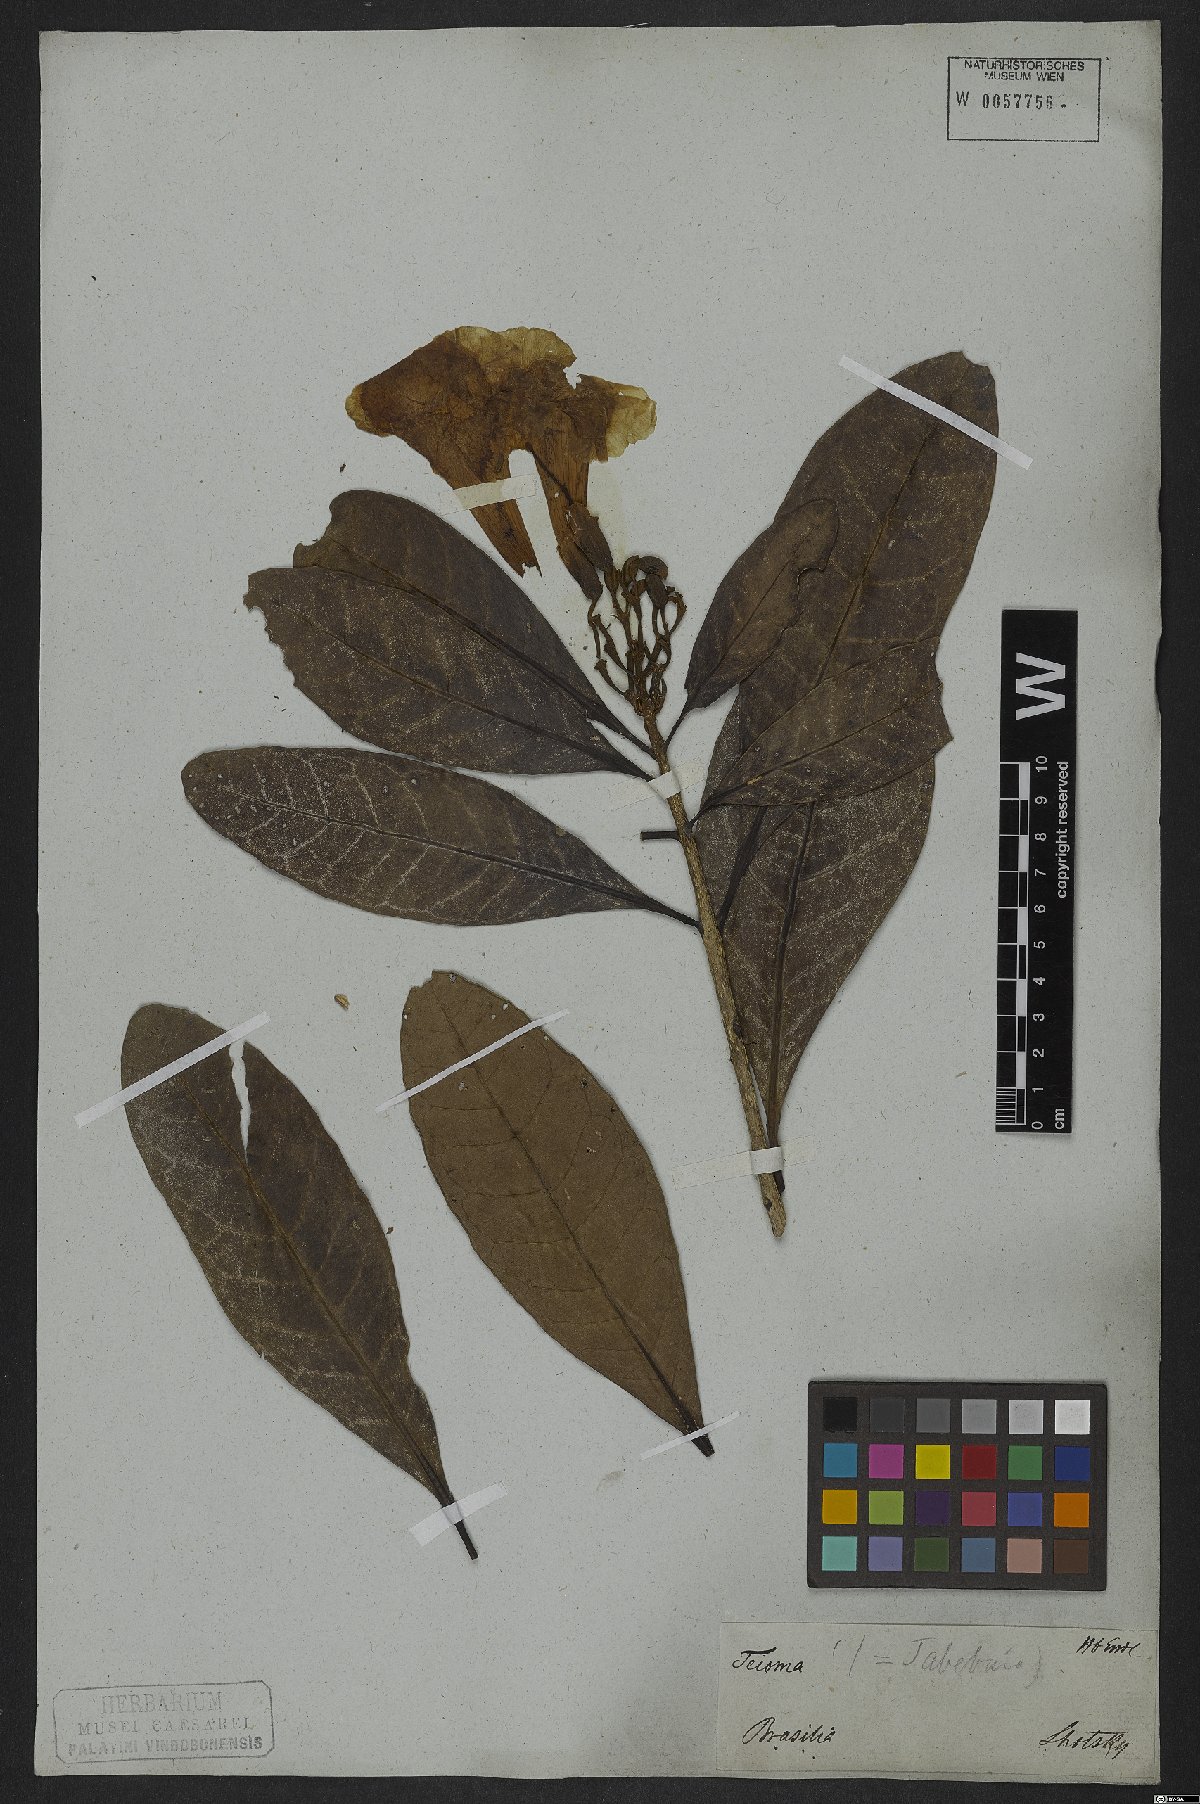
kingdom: Plantae
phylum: Tracheophyta
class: Magnoliopsida
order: Lamiales
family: Bignoniaceae
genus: Tabebuia
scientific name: Tabebuia cassinoides
